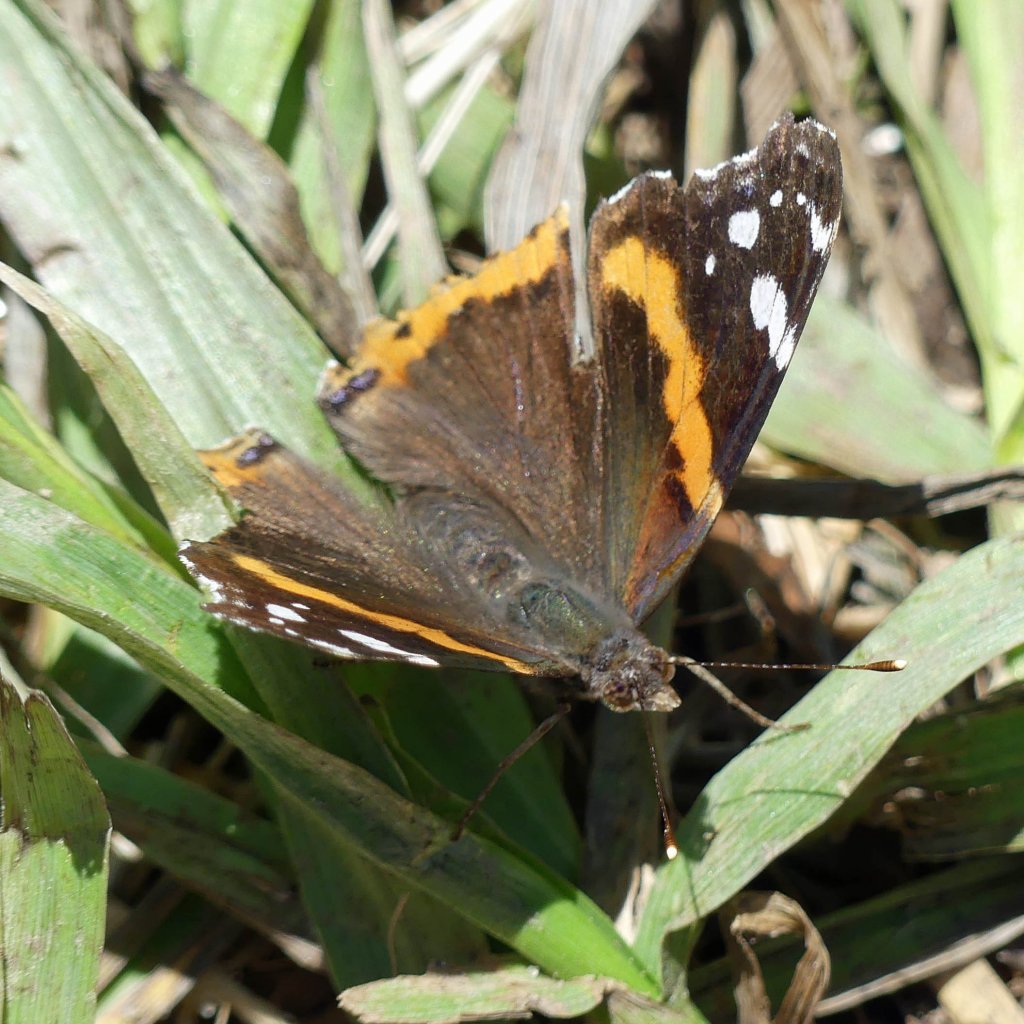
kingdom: Animalia
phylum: Arthropoda
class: Insecta
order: Lepidoptera
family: Nymphalidae
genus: Vanessa
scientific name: Vanessa atalanta
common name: Red Admiral
